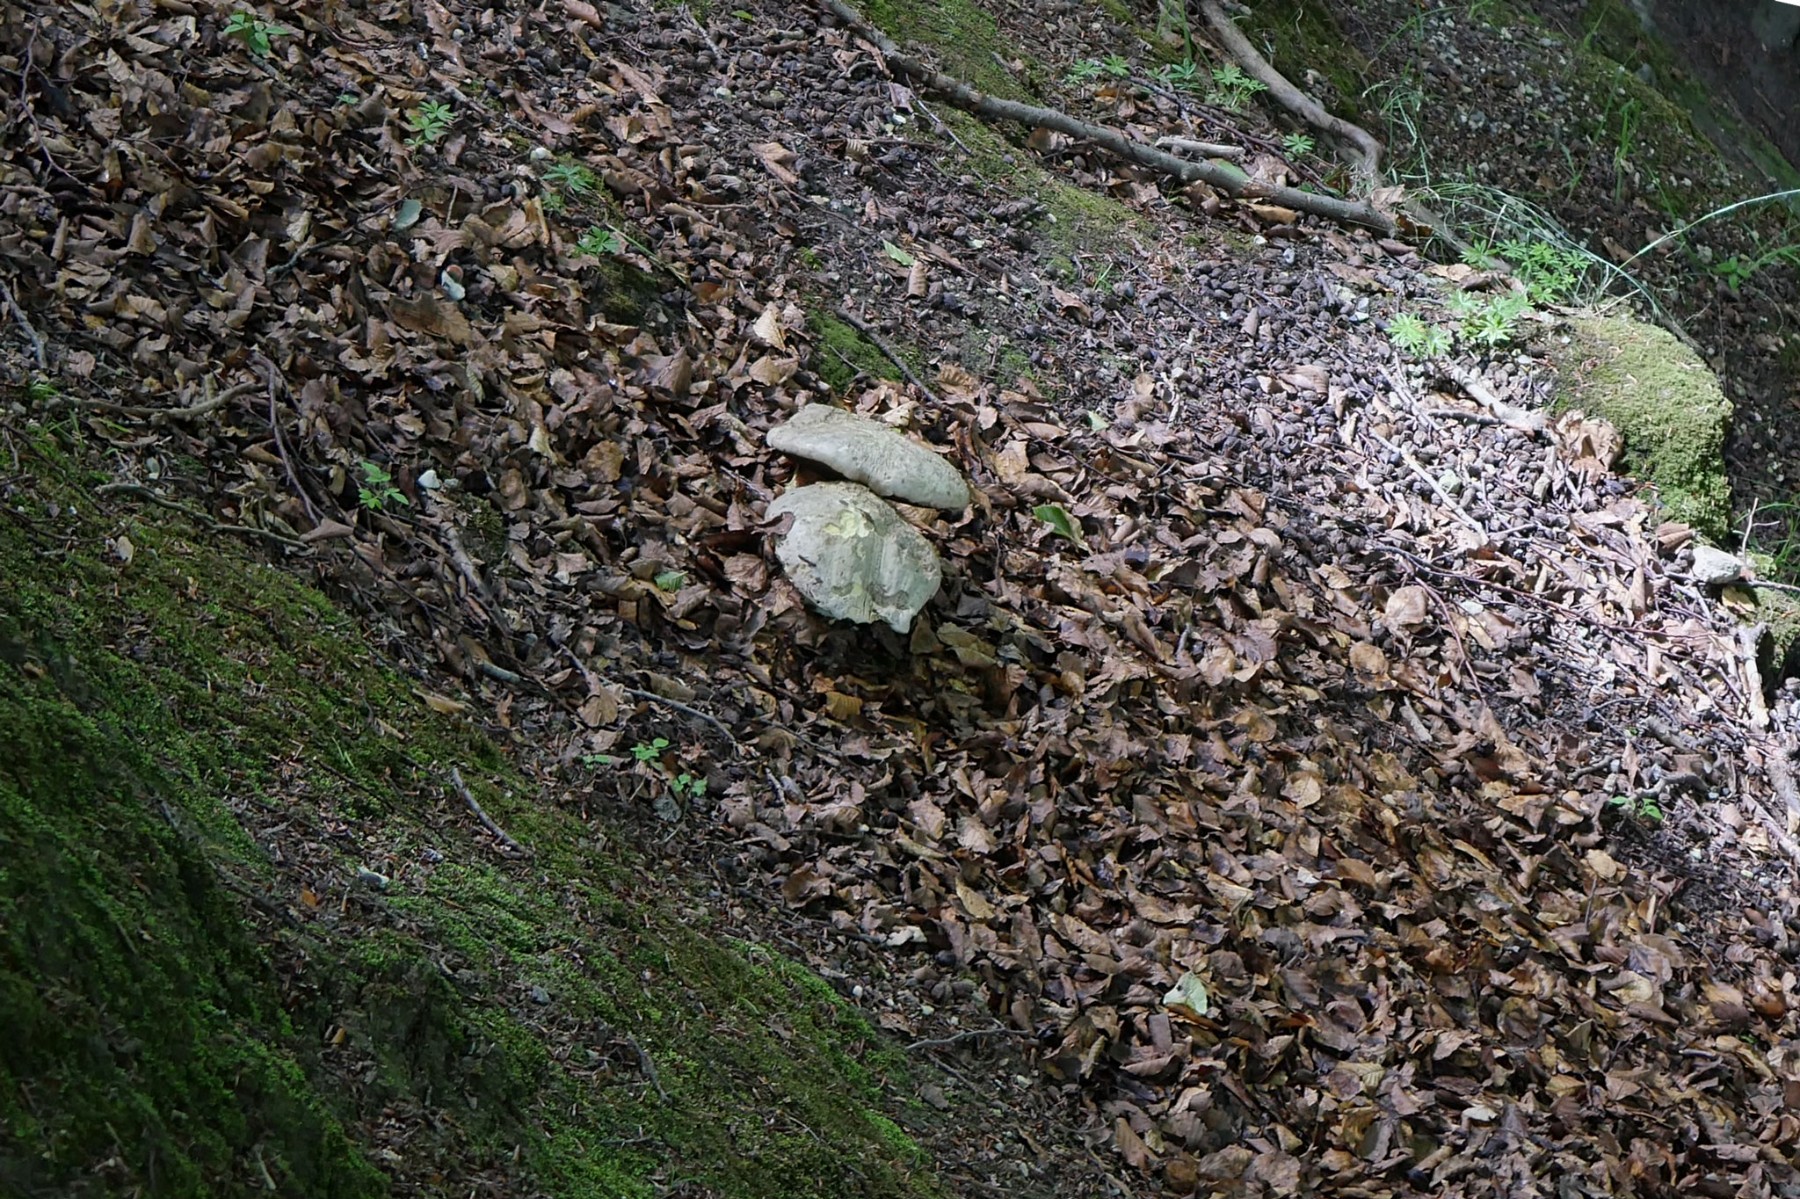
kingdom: Fungi
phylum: Basidiomycota
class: Agaricomycetes
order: Boletales
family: Boletaceae
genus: Rubroboletus
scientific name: Rubroboletus satanas
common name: Satans rørhat
